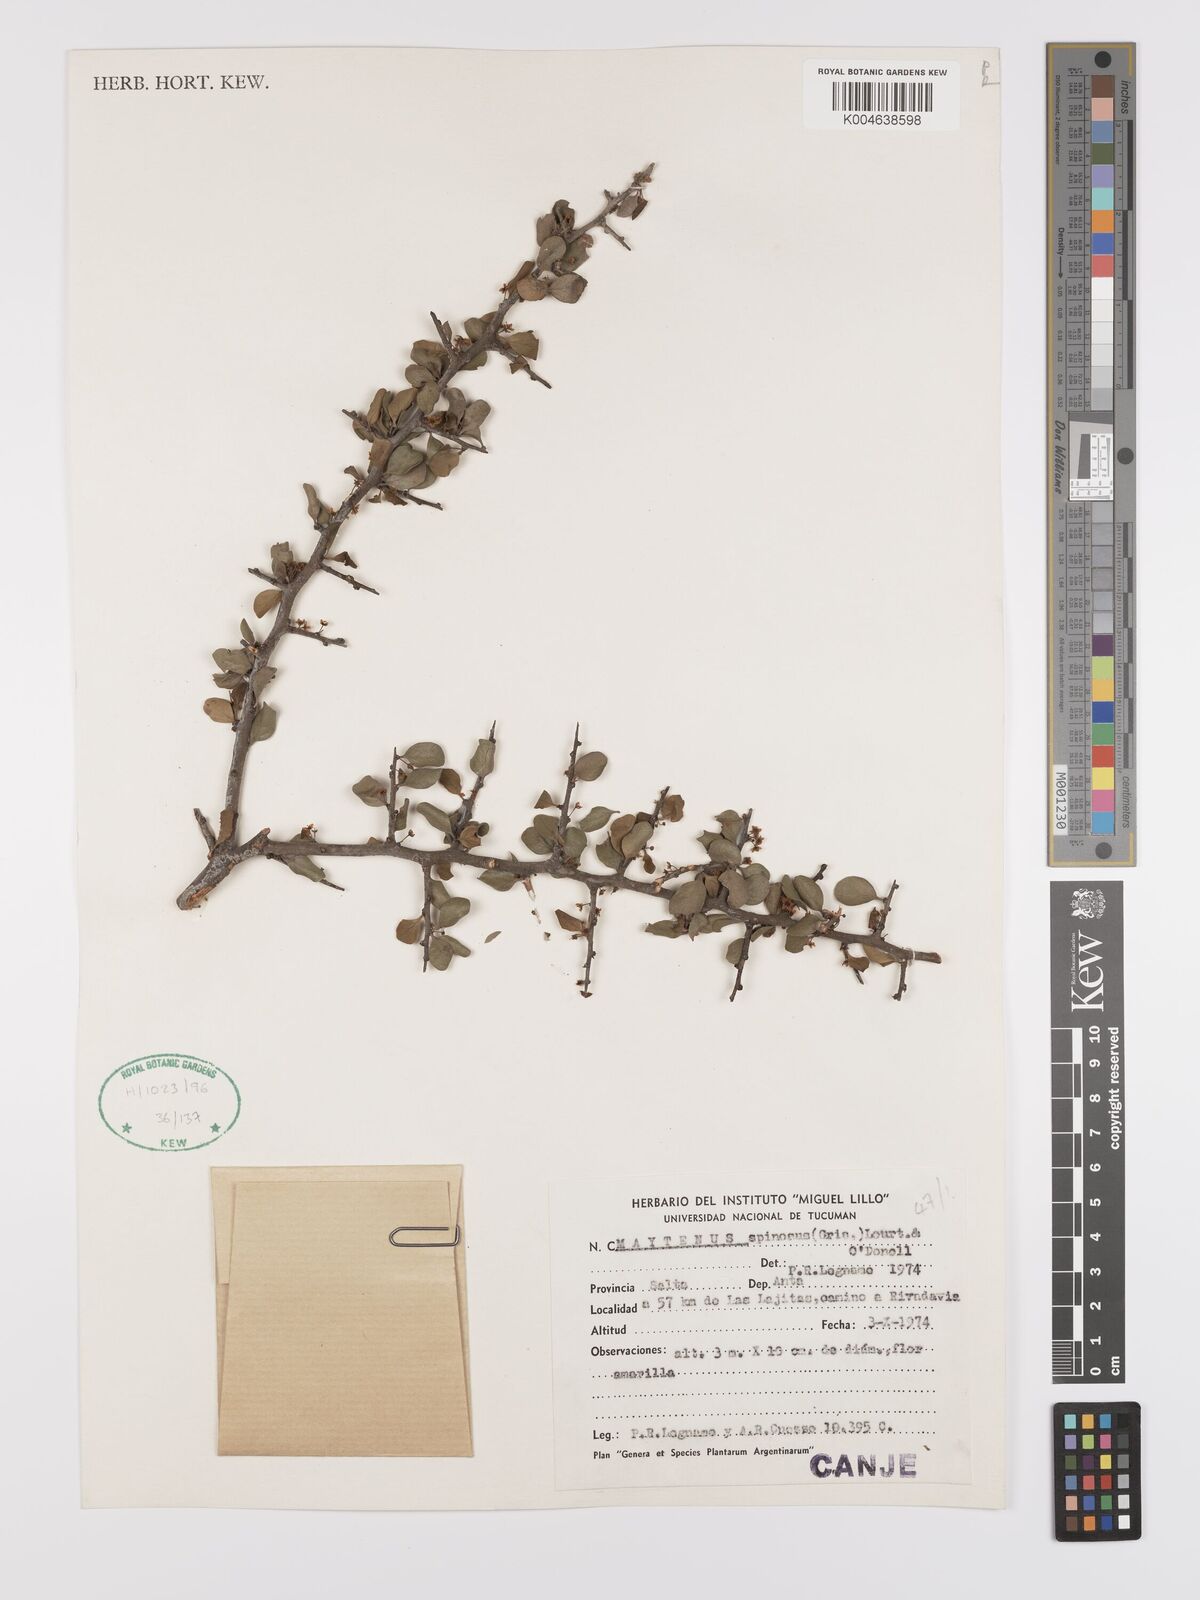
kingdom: Plantae
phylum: Tracheophyta
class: Magnoliopsida
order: Celastrales
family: Celastraceae
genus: Monteverdia
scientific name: Monteverdia spinosa
